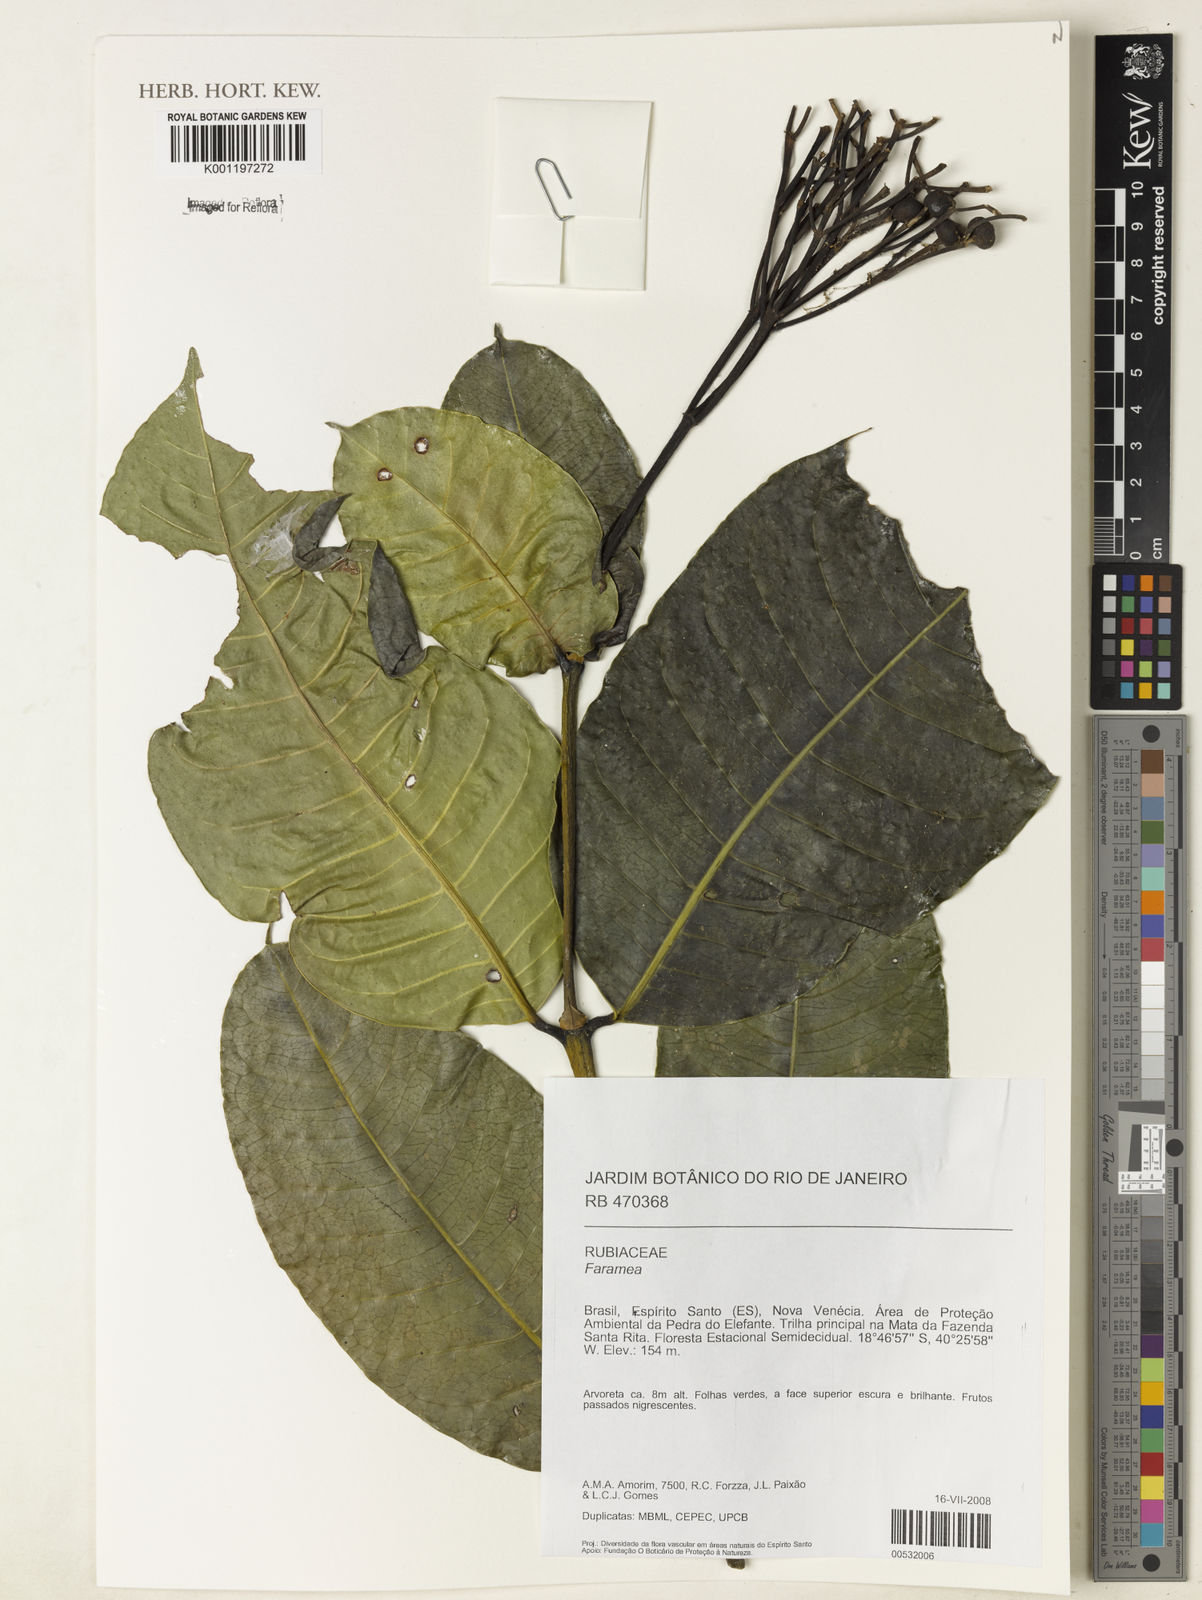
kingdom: Plantae
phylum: Tracheophyta
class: Magnoliopsida
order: Gentianales
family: Rubiaceae
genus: Faramea
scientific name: Faramea
